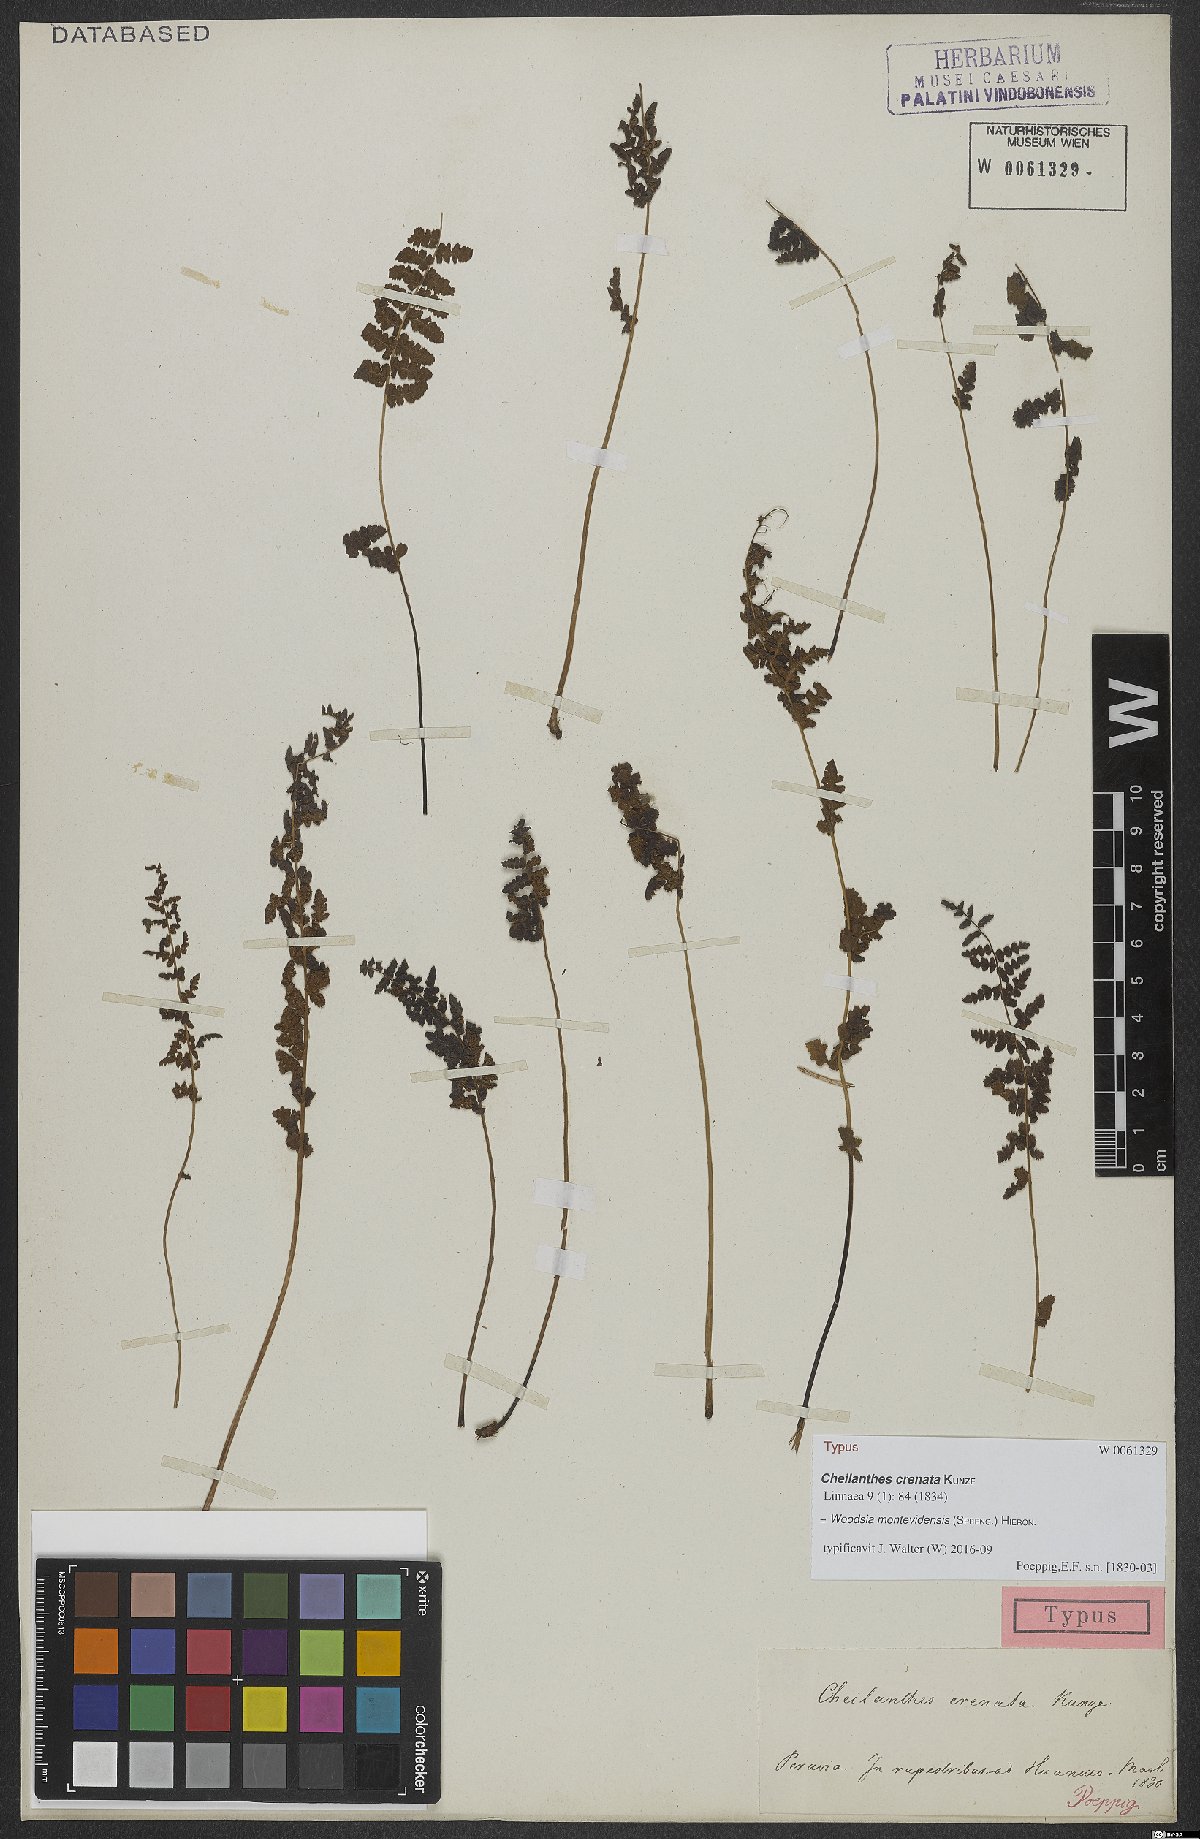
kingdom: Plantae
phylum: Tracheophyta
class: Polypodiopsida
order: Polypodiales
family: Woodsiaceae
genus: Physematium
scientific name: Physematium montevidense
